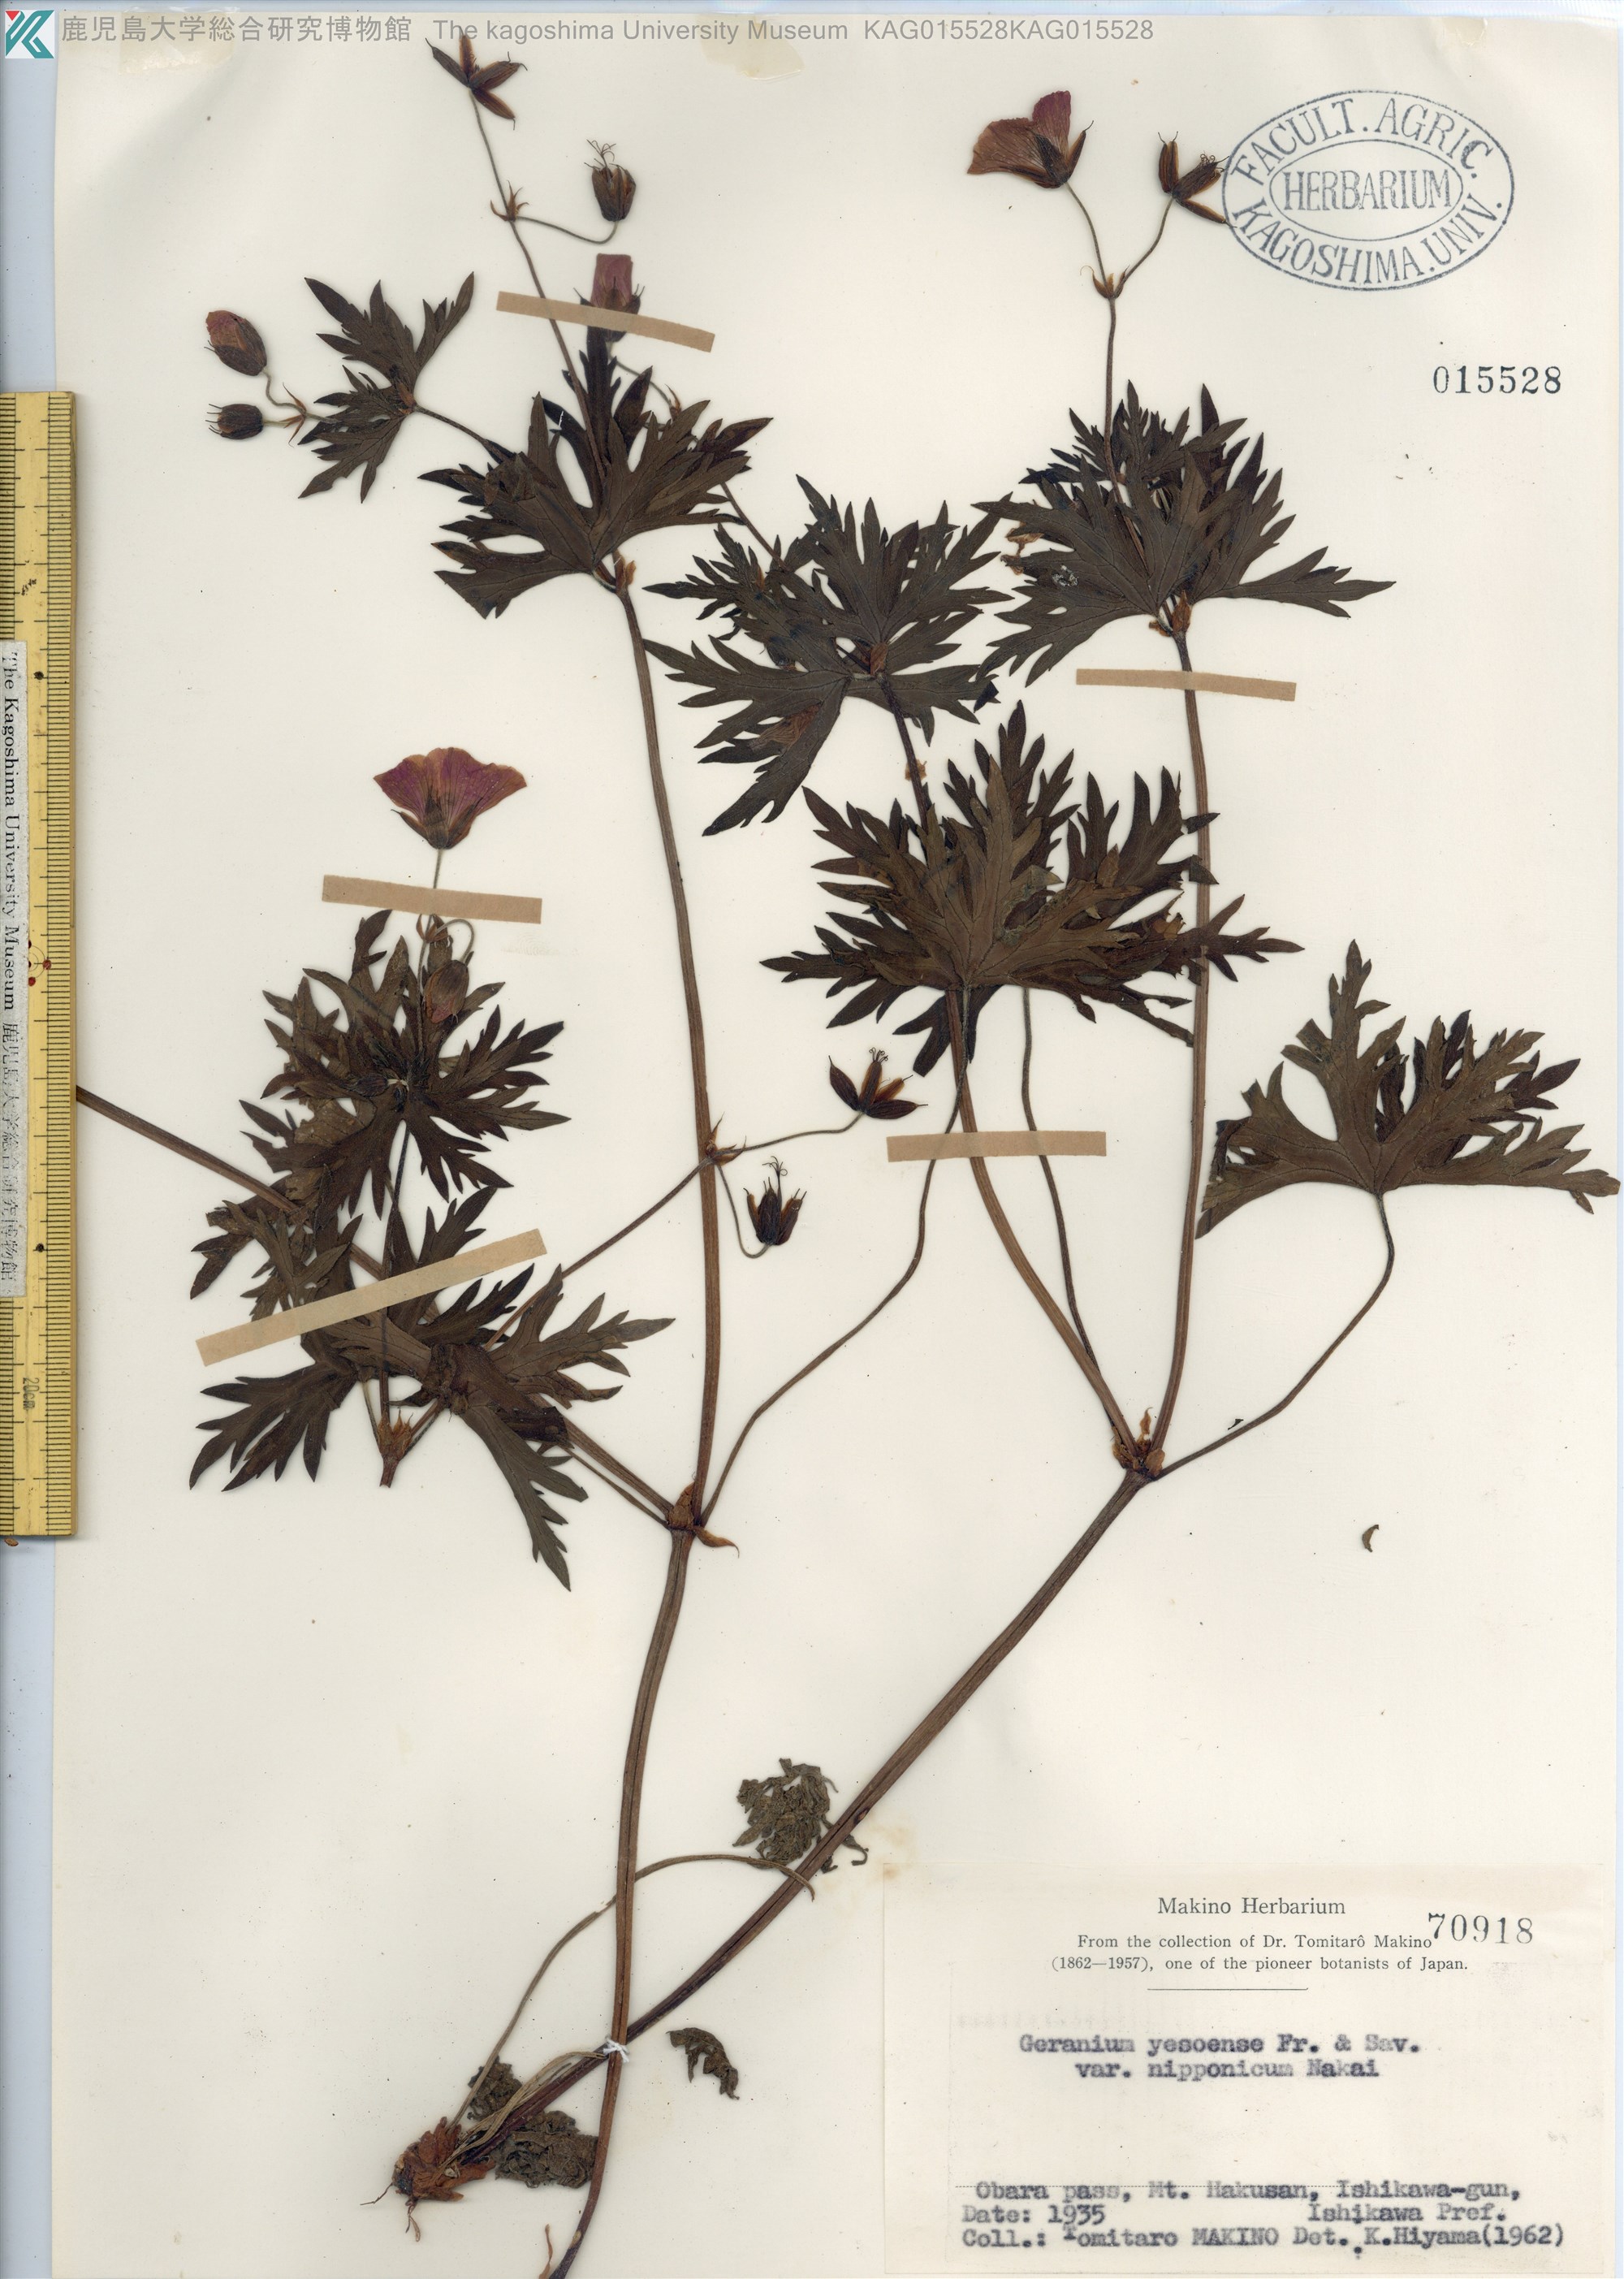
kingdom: Plantae
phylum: Tracheophyta
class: Magnoliopsida
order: Geraniales
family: Geraniaceae
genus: Geranium
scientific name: Geranium yesoense
